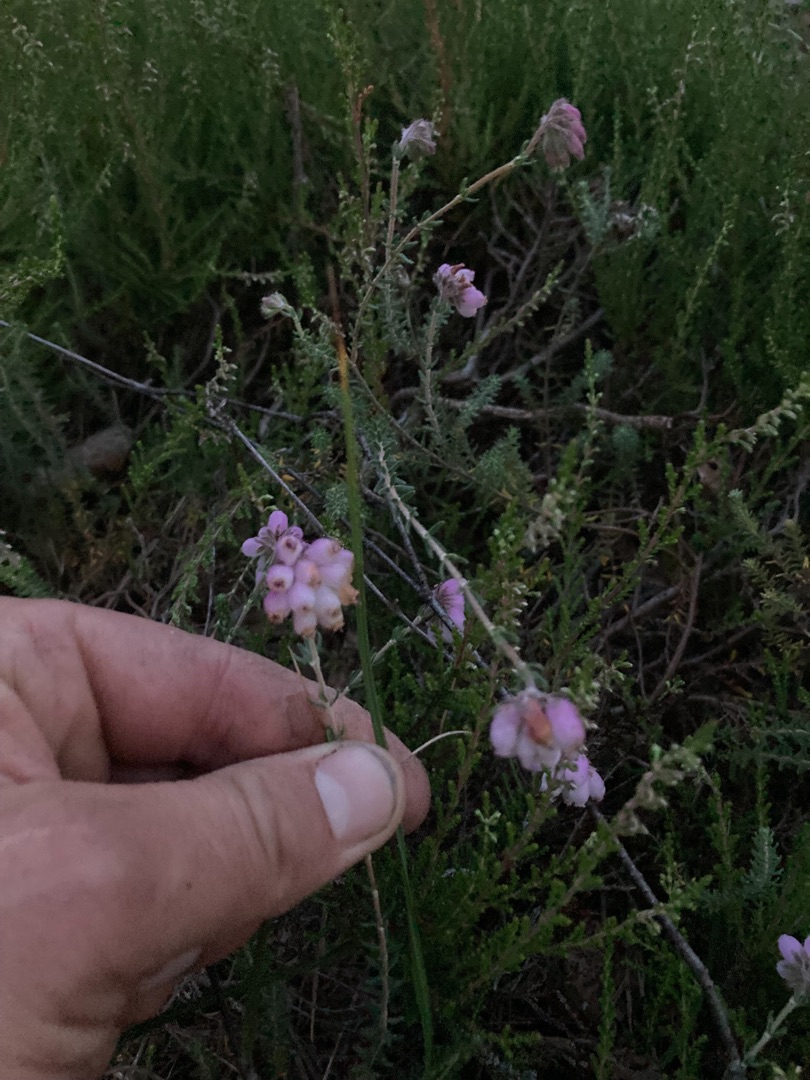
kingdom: Plantae
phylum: Tracheophyta
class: Magnoliopsida
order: Ericales
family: Ericaceae
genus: Erica
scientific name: Erica tetralix
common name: Klokkelyng
